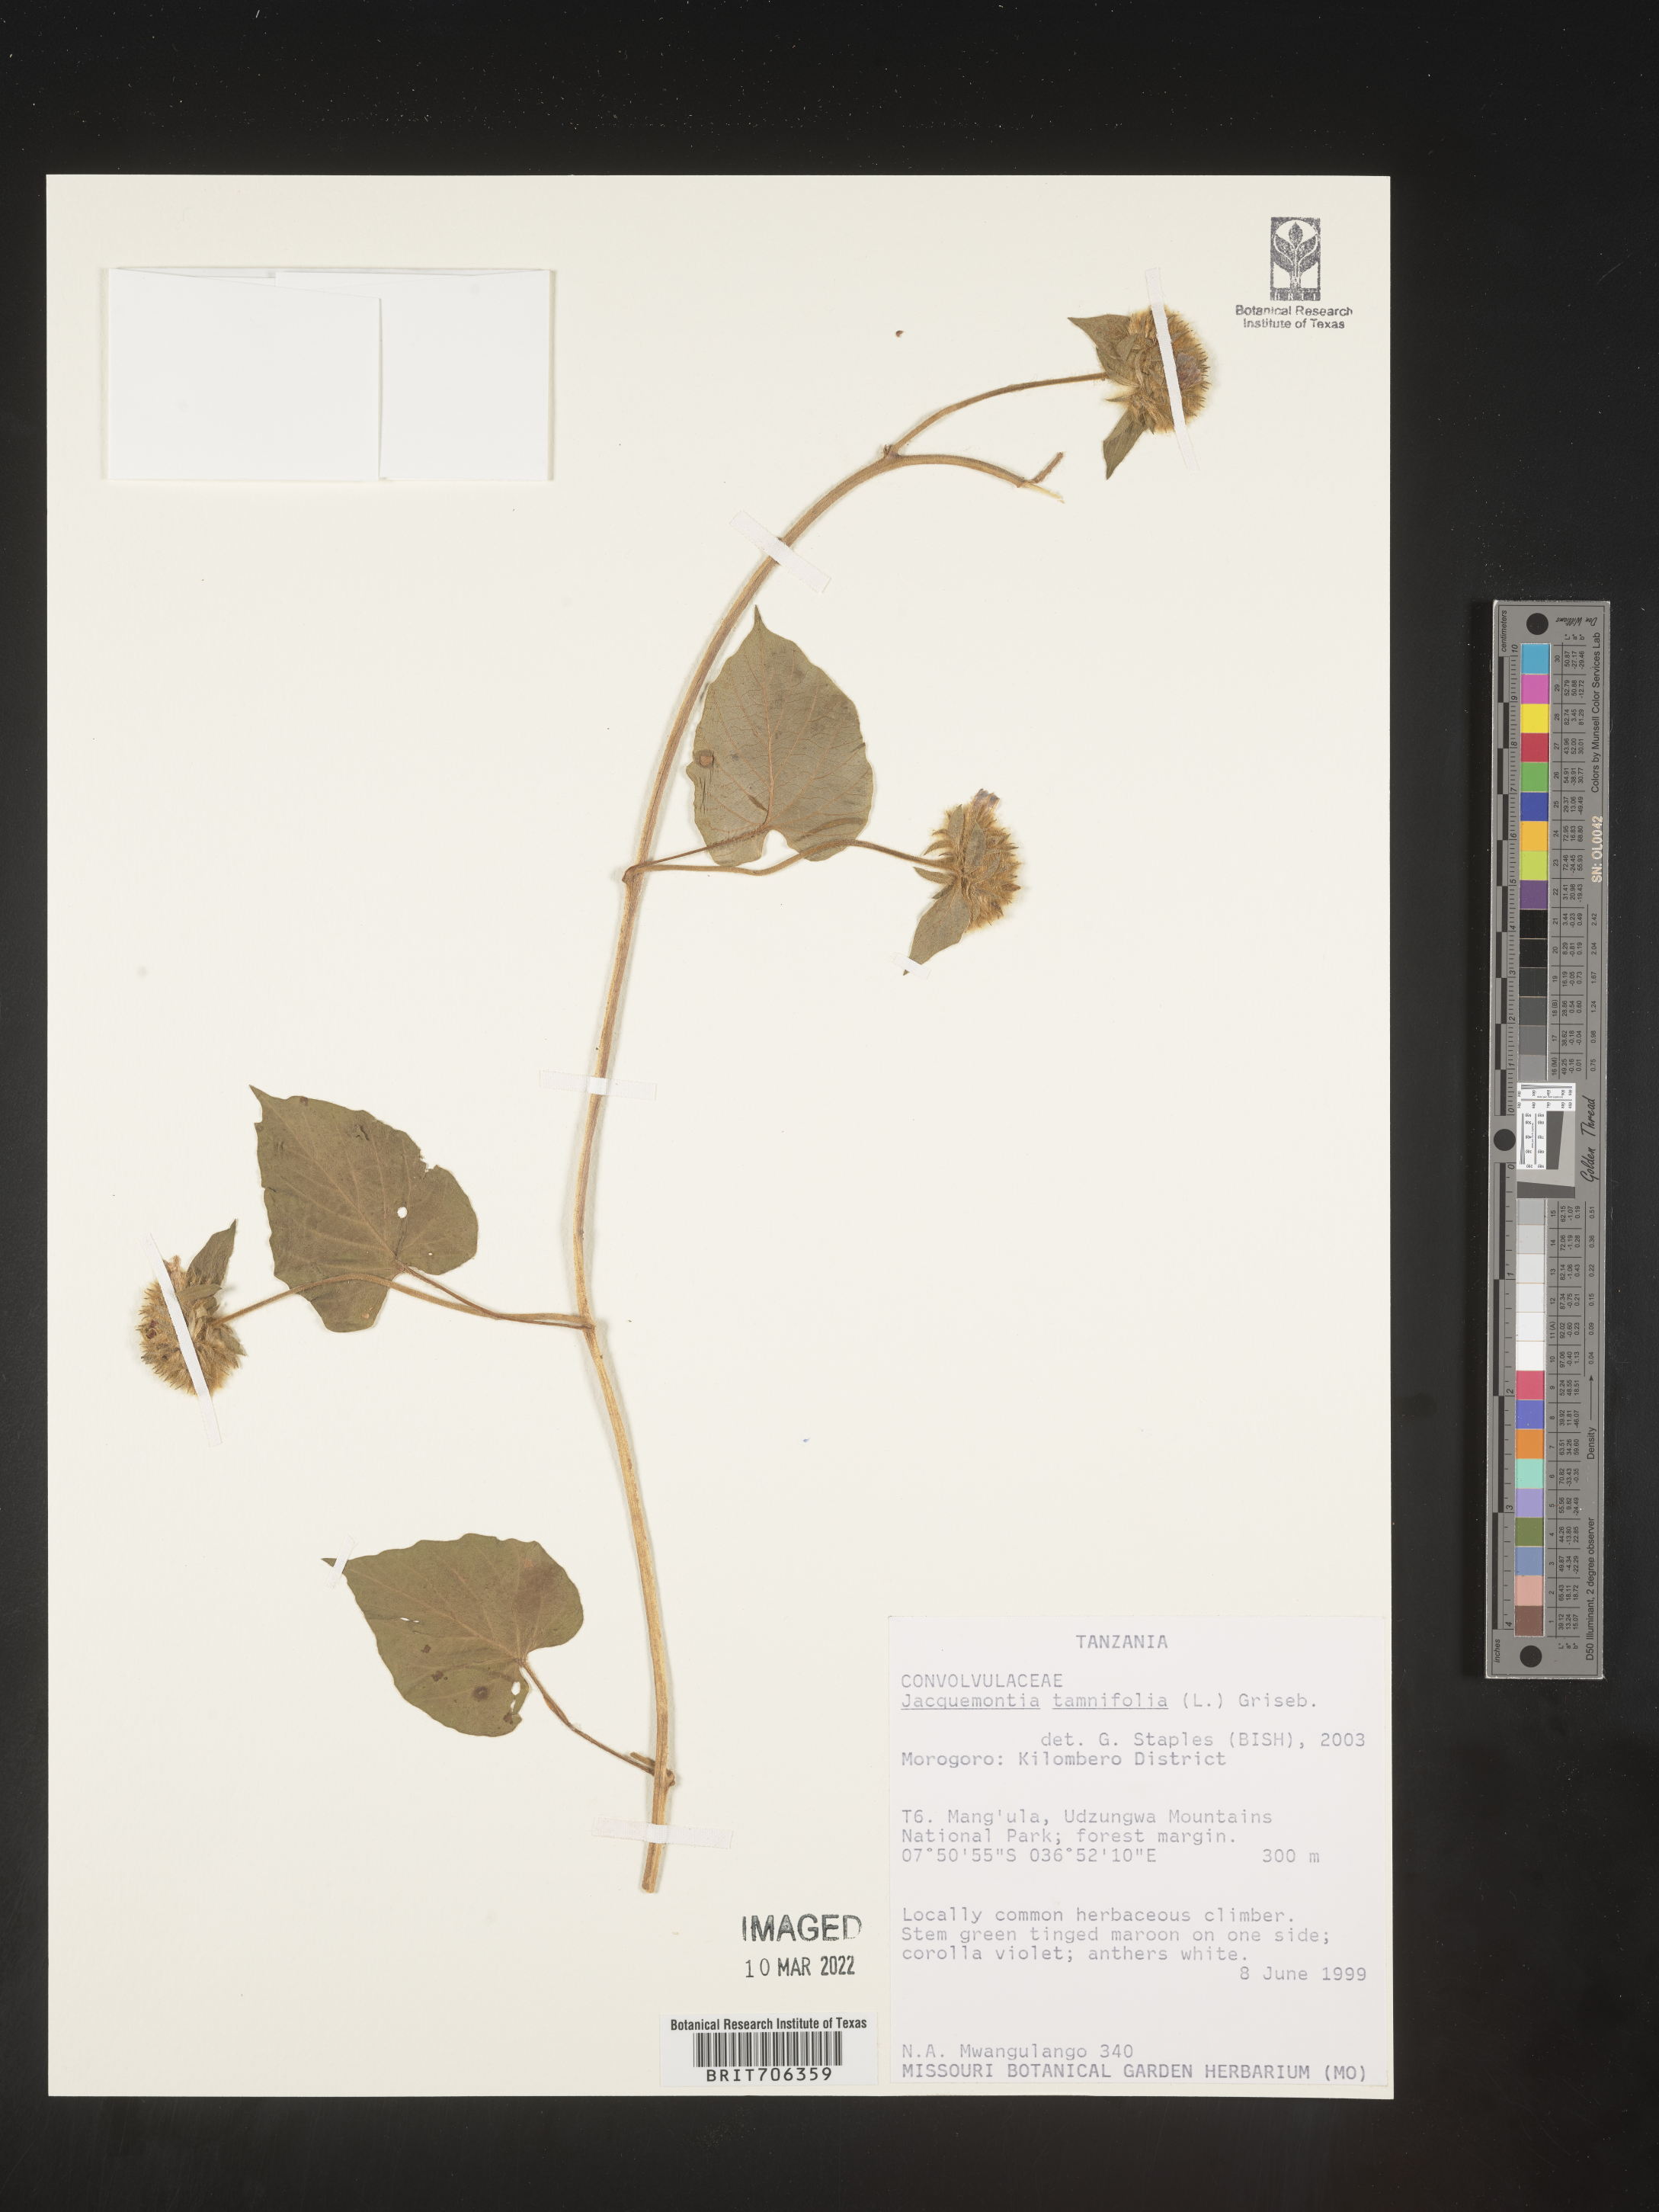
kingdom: Plantae
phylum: Tracheophyta
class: Magnoliopsida
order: Solanales
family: Convolvulaceae
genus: Jacquemontia
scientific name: Jacquemontia
